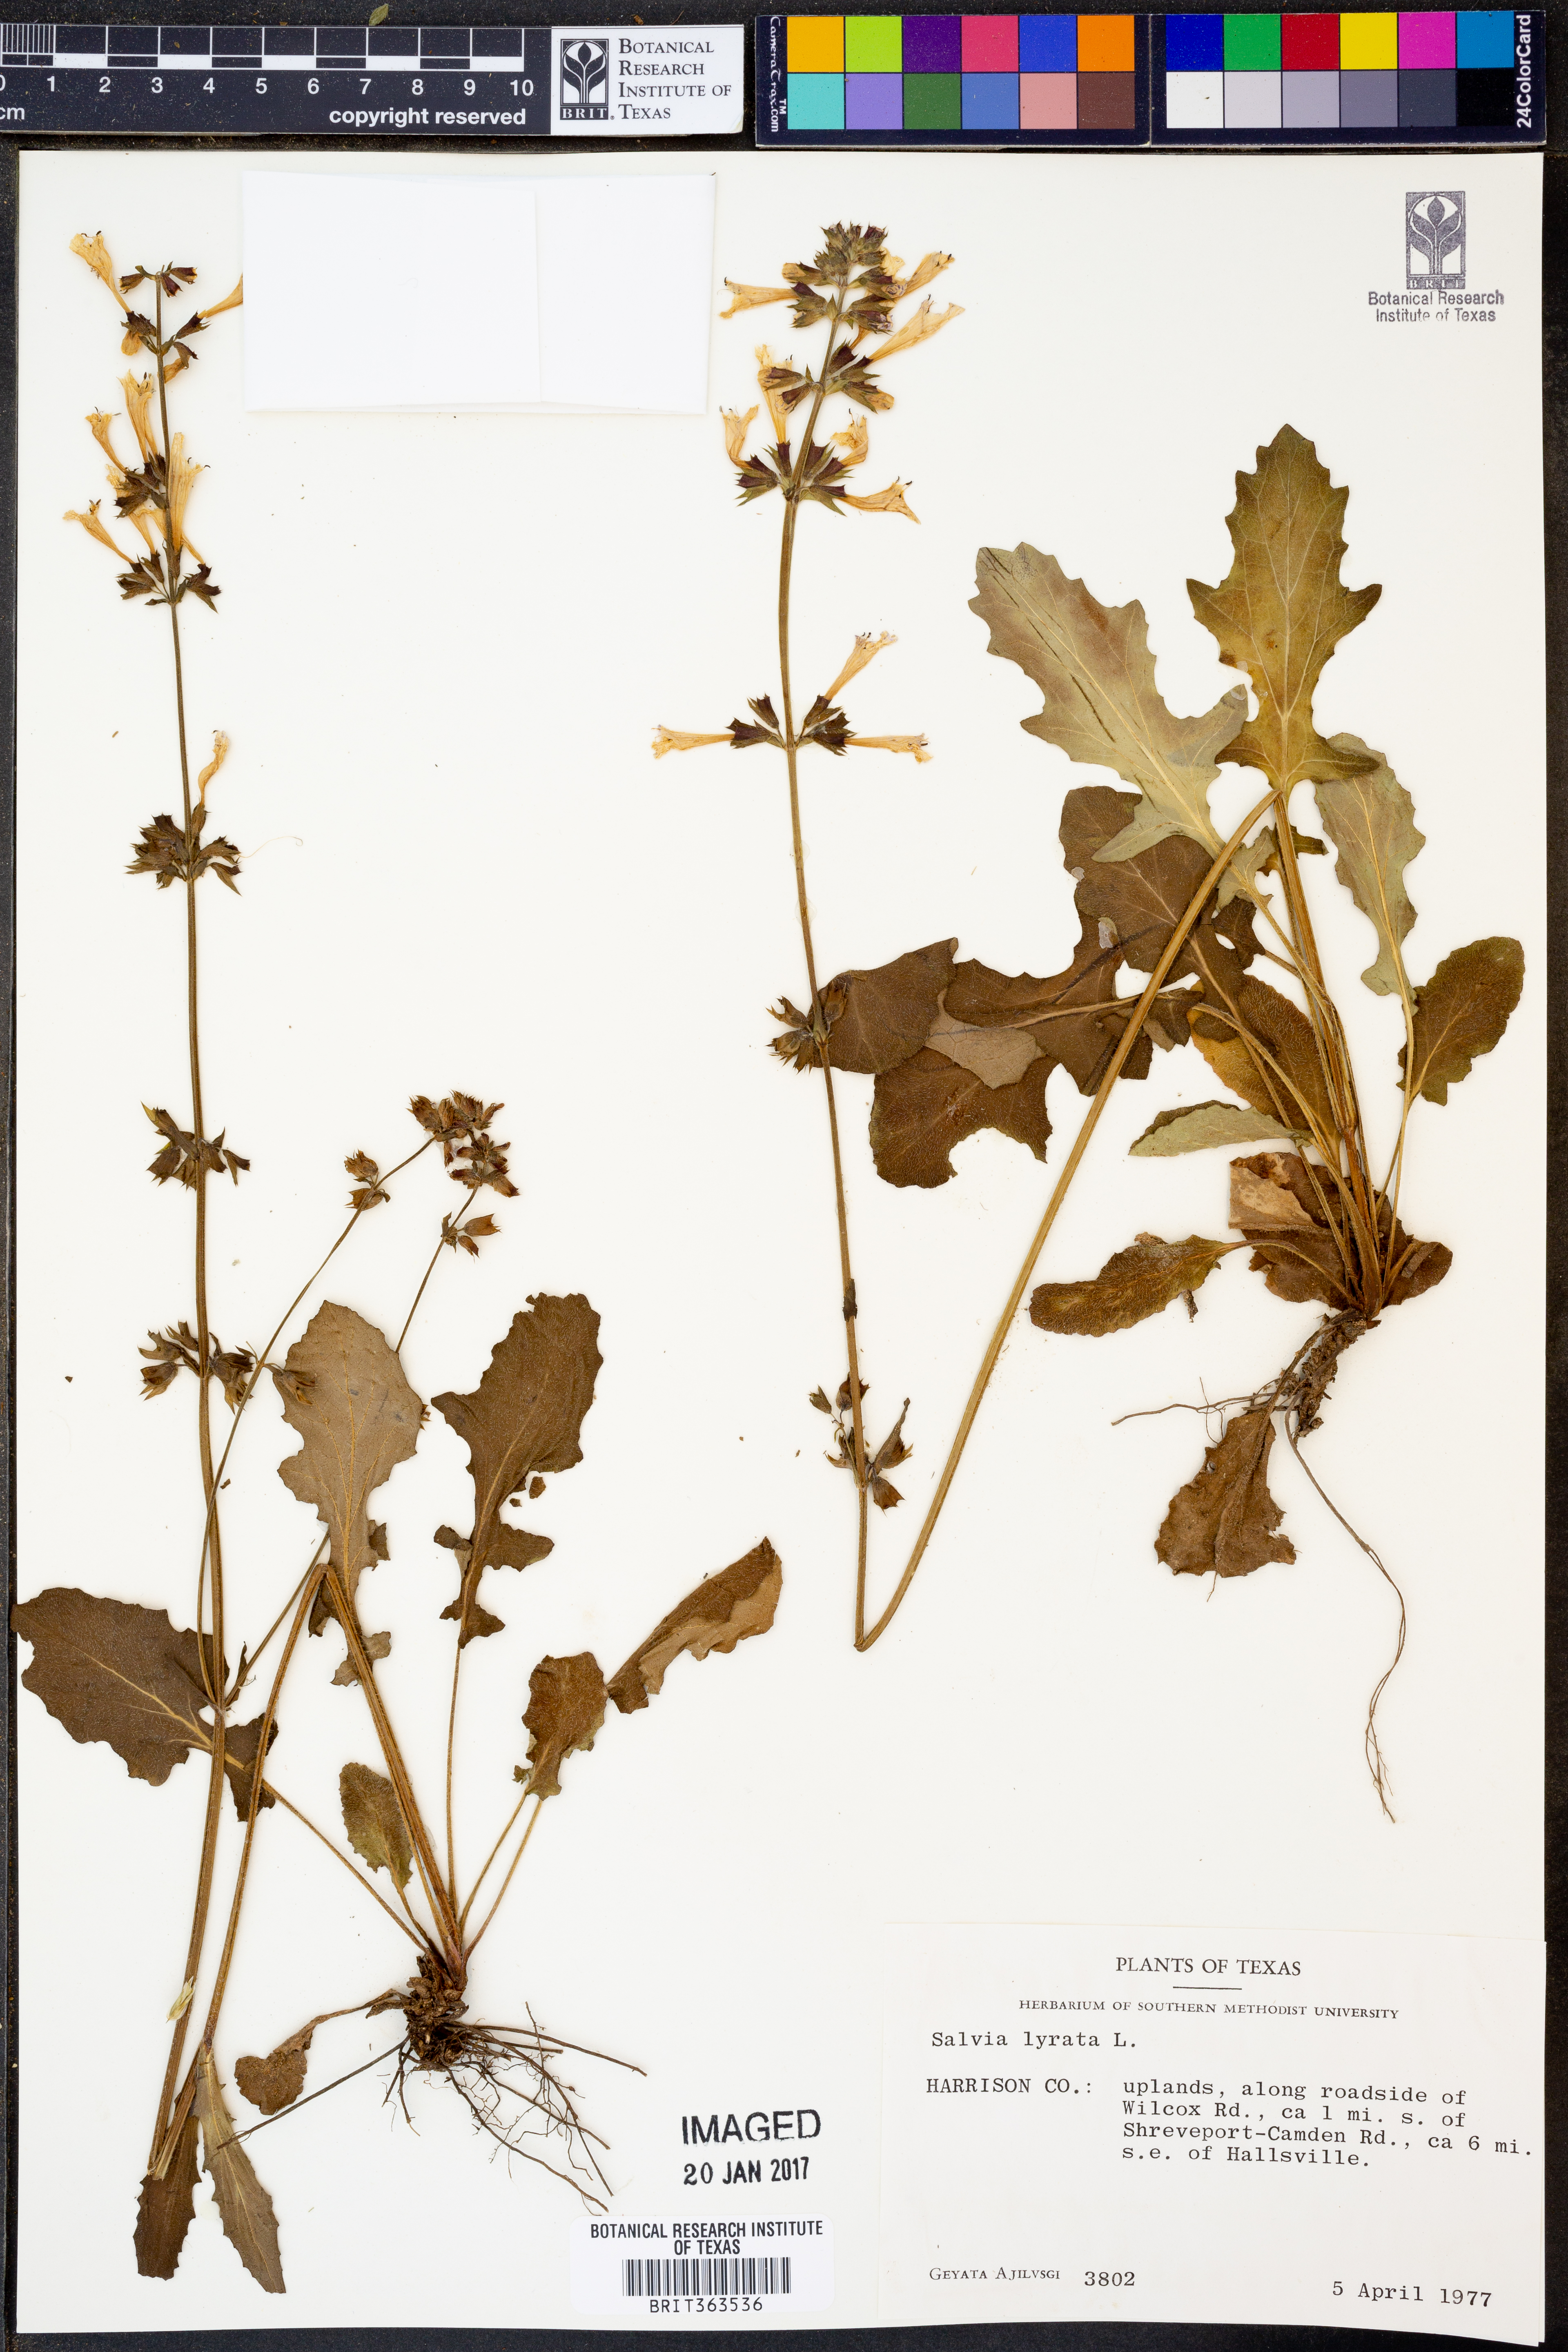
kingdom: Plantae
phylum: Tracheophyta
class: Magnoliopsida
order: Lamiales
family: Lamiaceae
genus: Salvia
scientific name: Salvia lyrata
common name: Cancerweed
